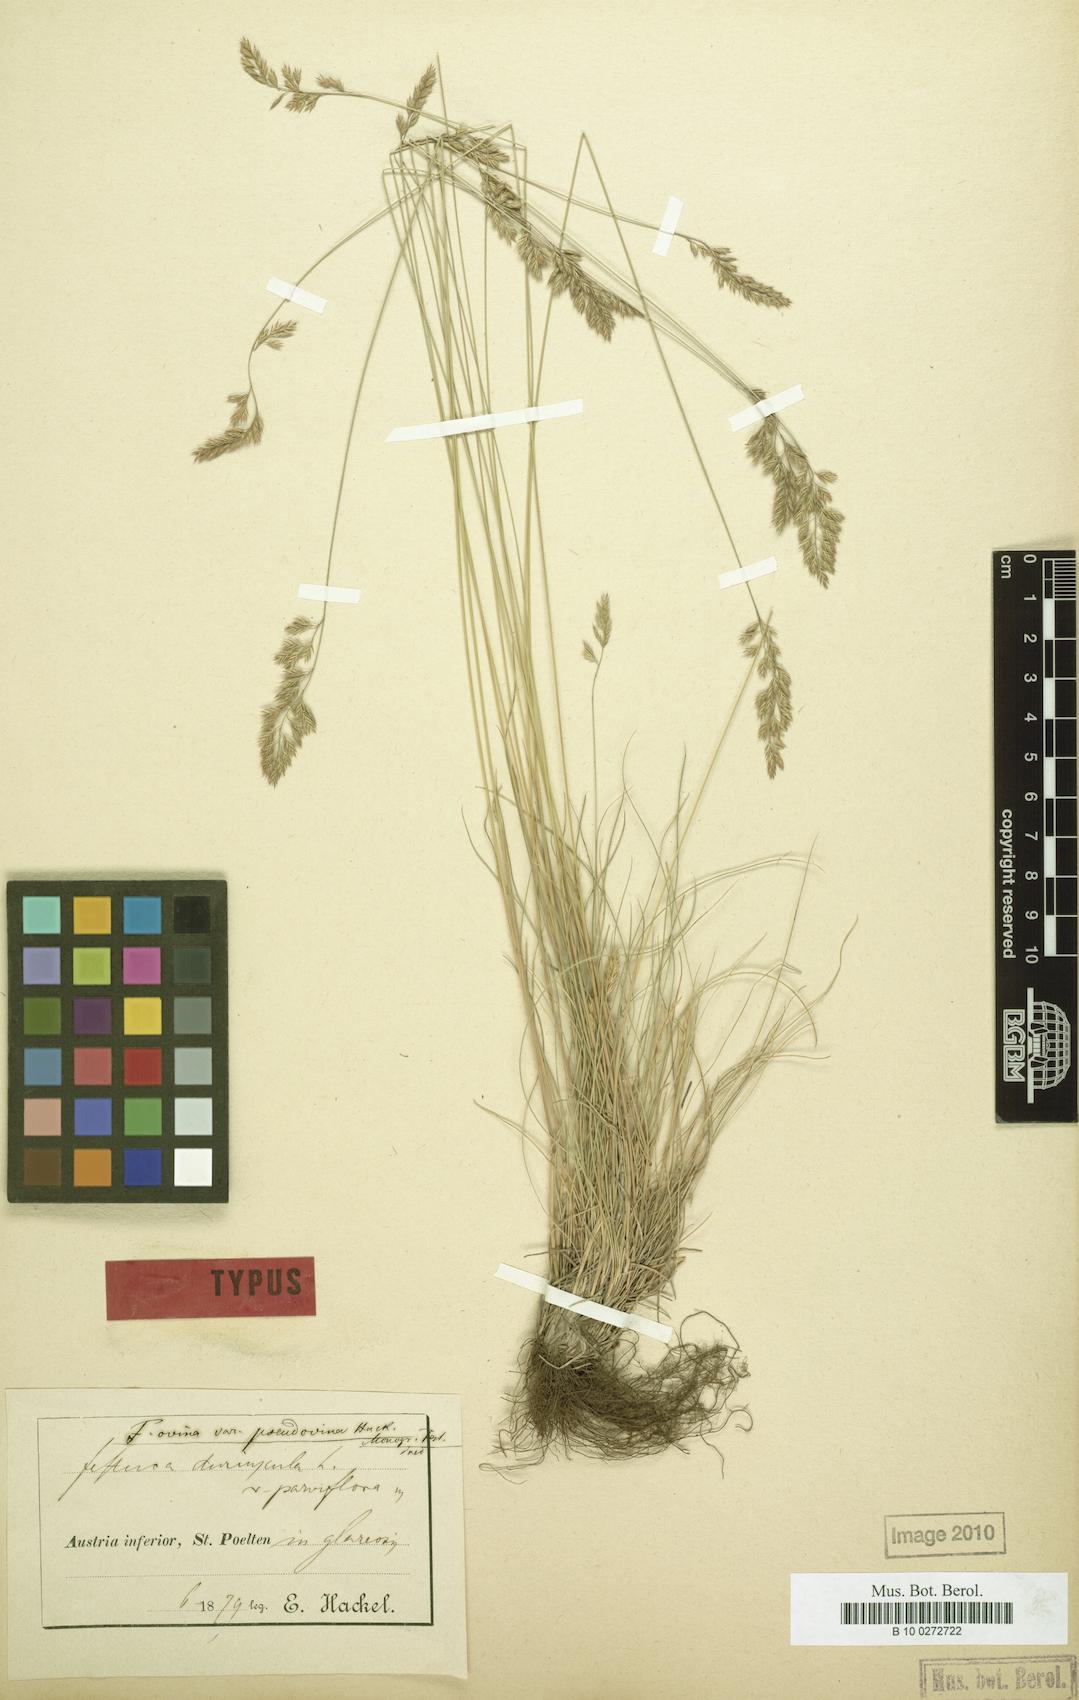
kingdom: Plantae
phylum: Tracheophyta
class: Liliopsida
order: Poales
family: Poaceae
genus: Festuca
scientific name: Festuca valesiaca
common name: Volga fescue
